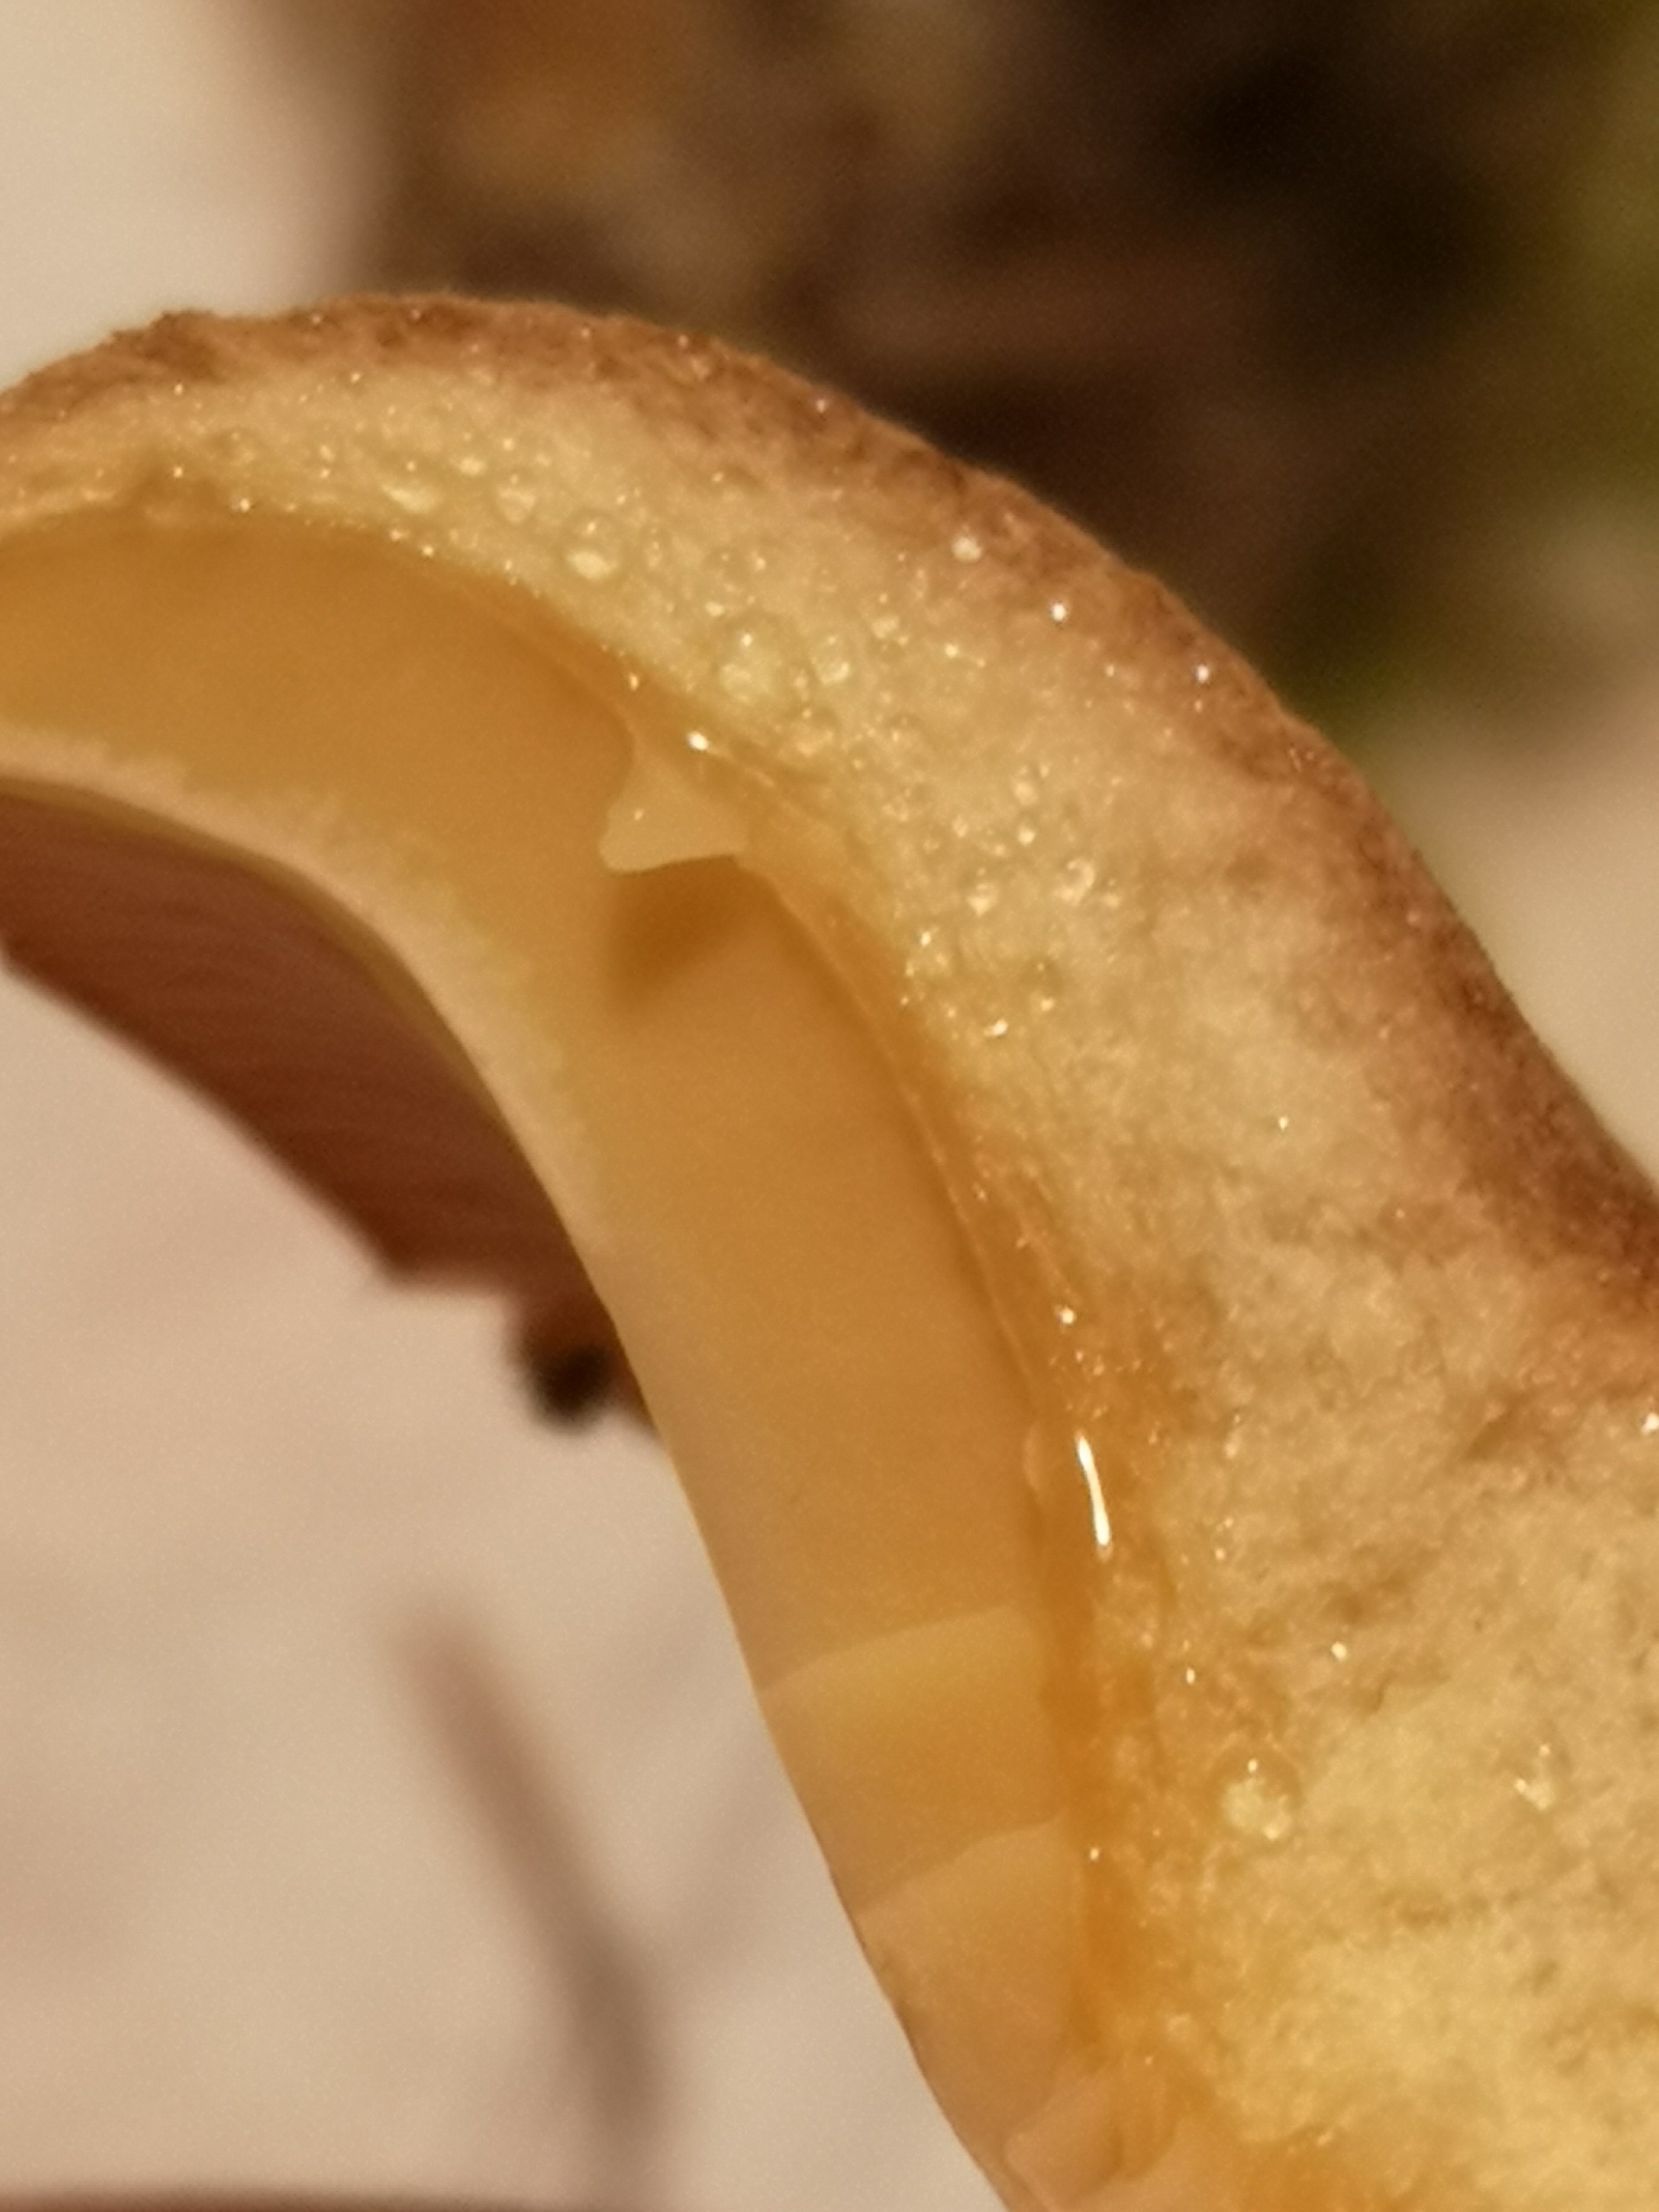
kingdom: Fungi
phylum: Basidiomycota
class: Agaricomycetes
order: Russulales
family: Russulaceae
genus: Lactarius
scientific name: Lactarius helvus
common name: mose-mælkehat
